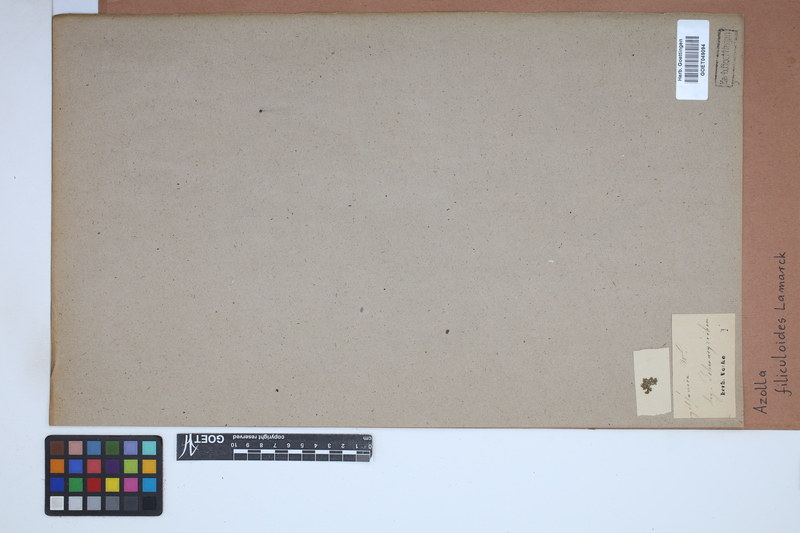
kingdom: Plantae
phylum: Tracheophyta
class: Polypodiopsida
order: Salviniales
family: Salviniaceae
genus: Azolla
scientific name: Azolla filiculoides
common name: Water fern
